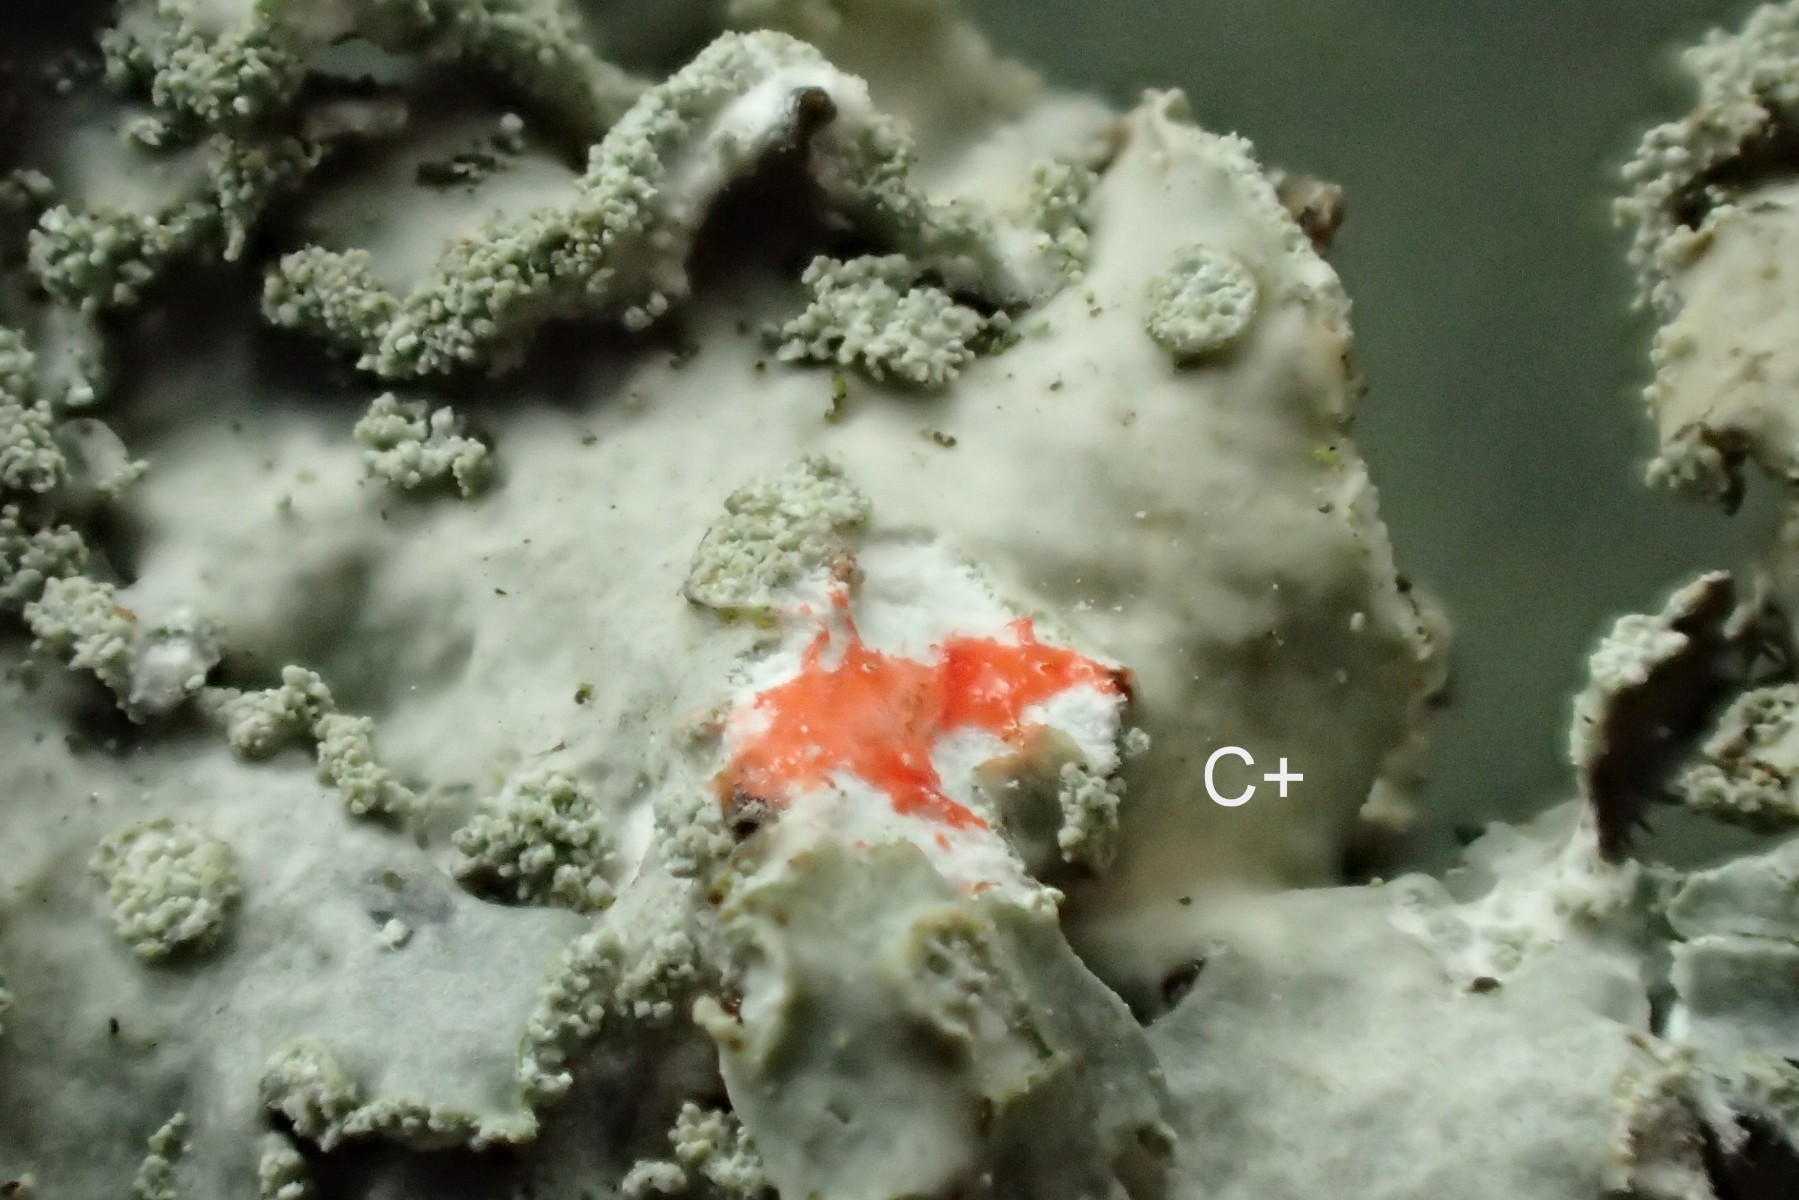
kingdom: Fungi
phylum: Ascomycota
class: Lecanoromycetes
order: Lecanorales
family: Parmeliaceae
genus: Punctelia
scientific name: Punctelia subrudecta
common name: punkt-skållav
